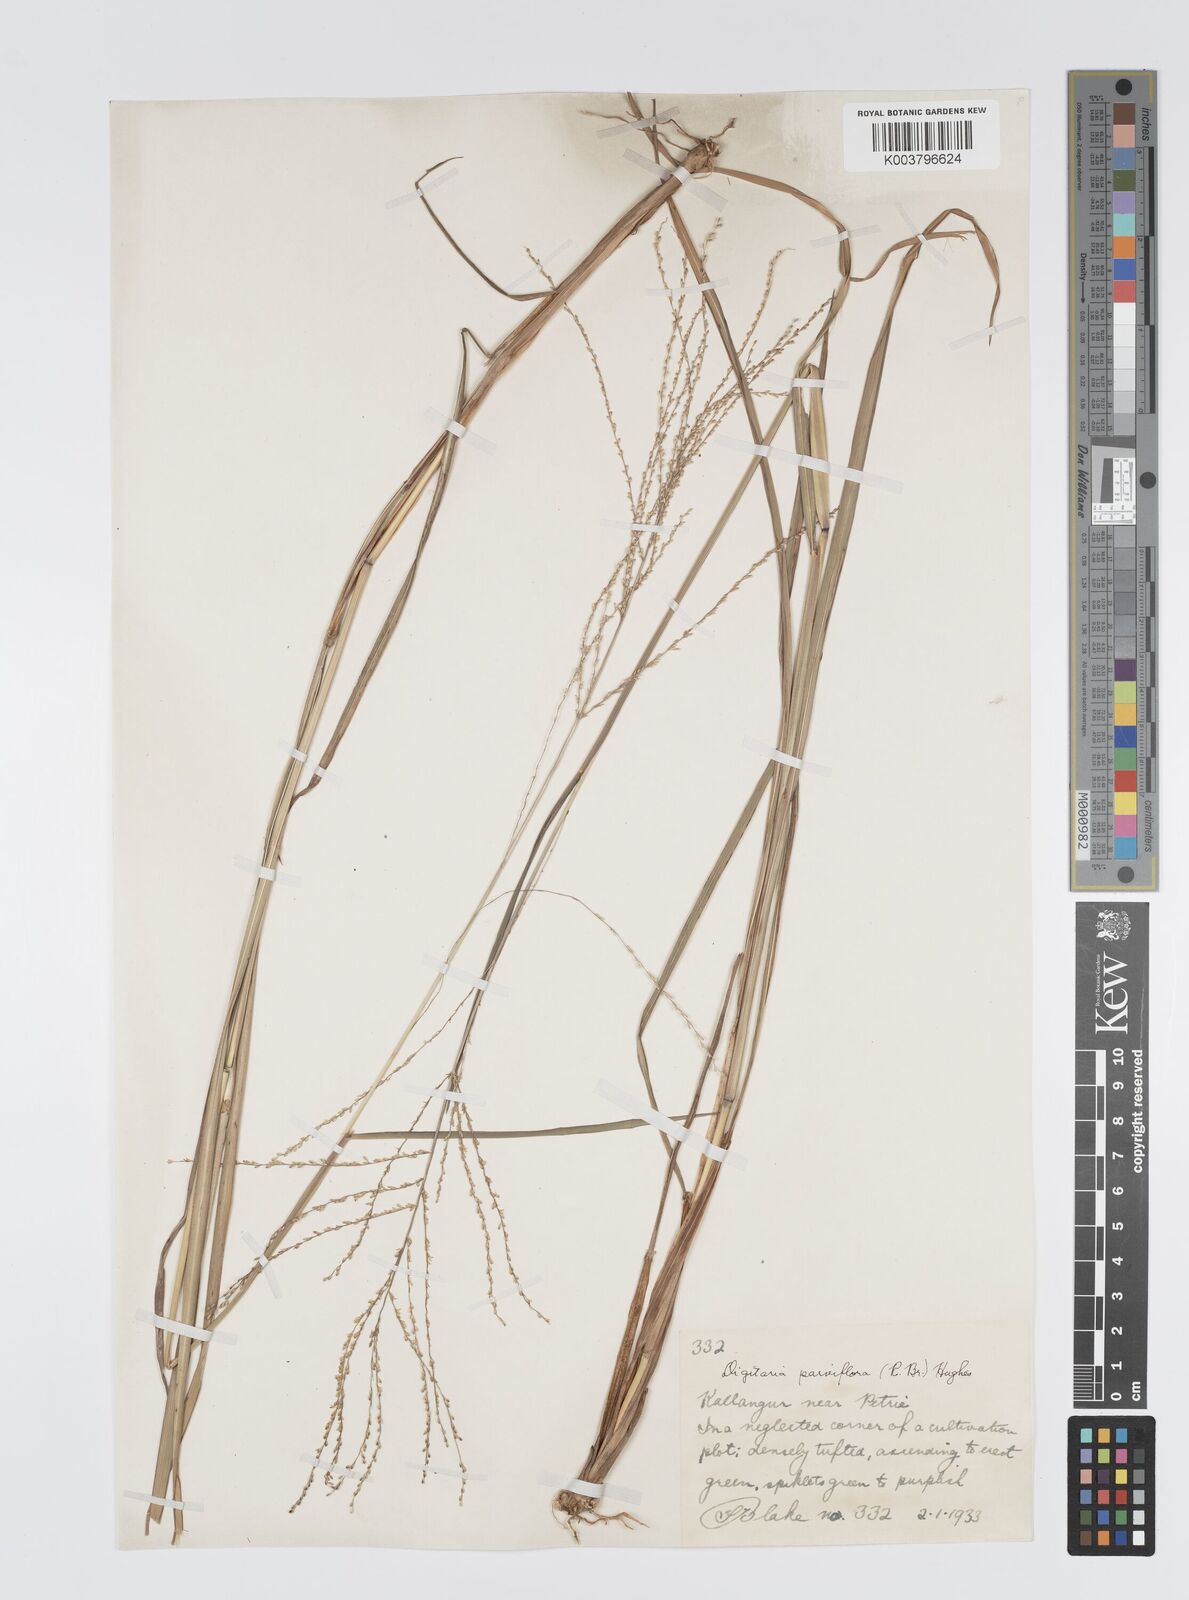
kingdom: Plantae
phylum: Tracheophyta
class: Liliopsida
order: Poales
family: Poaceae
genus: Digitaria
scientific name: Digitaria parviflora
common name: Small-flower finger grass
